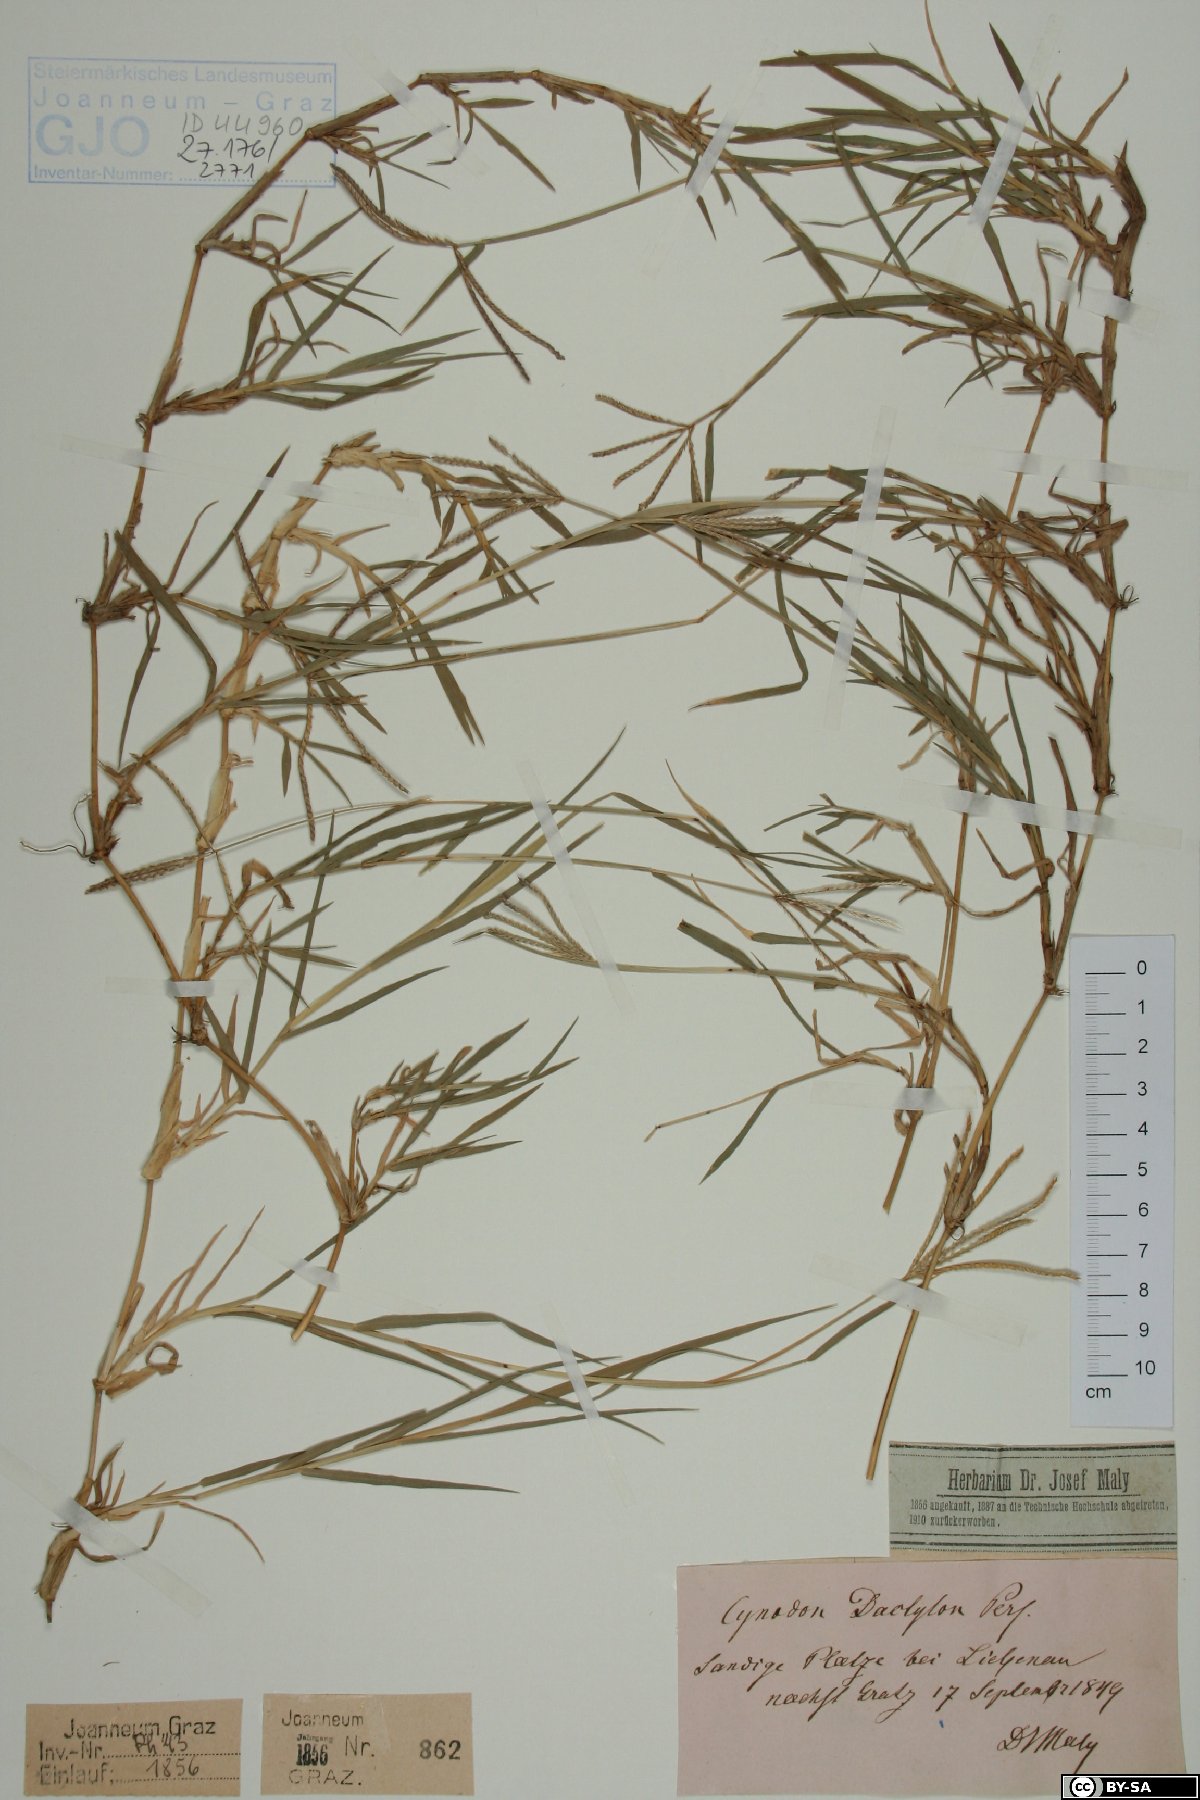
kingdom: Plantae
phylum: Tracheophyta
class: Liliopsida
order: Poales
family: Poaceae
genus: Cynodon
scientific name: Cynodon dactylon
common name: Bermuda grass
